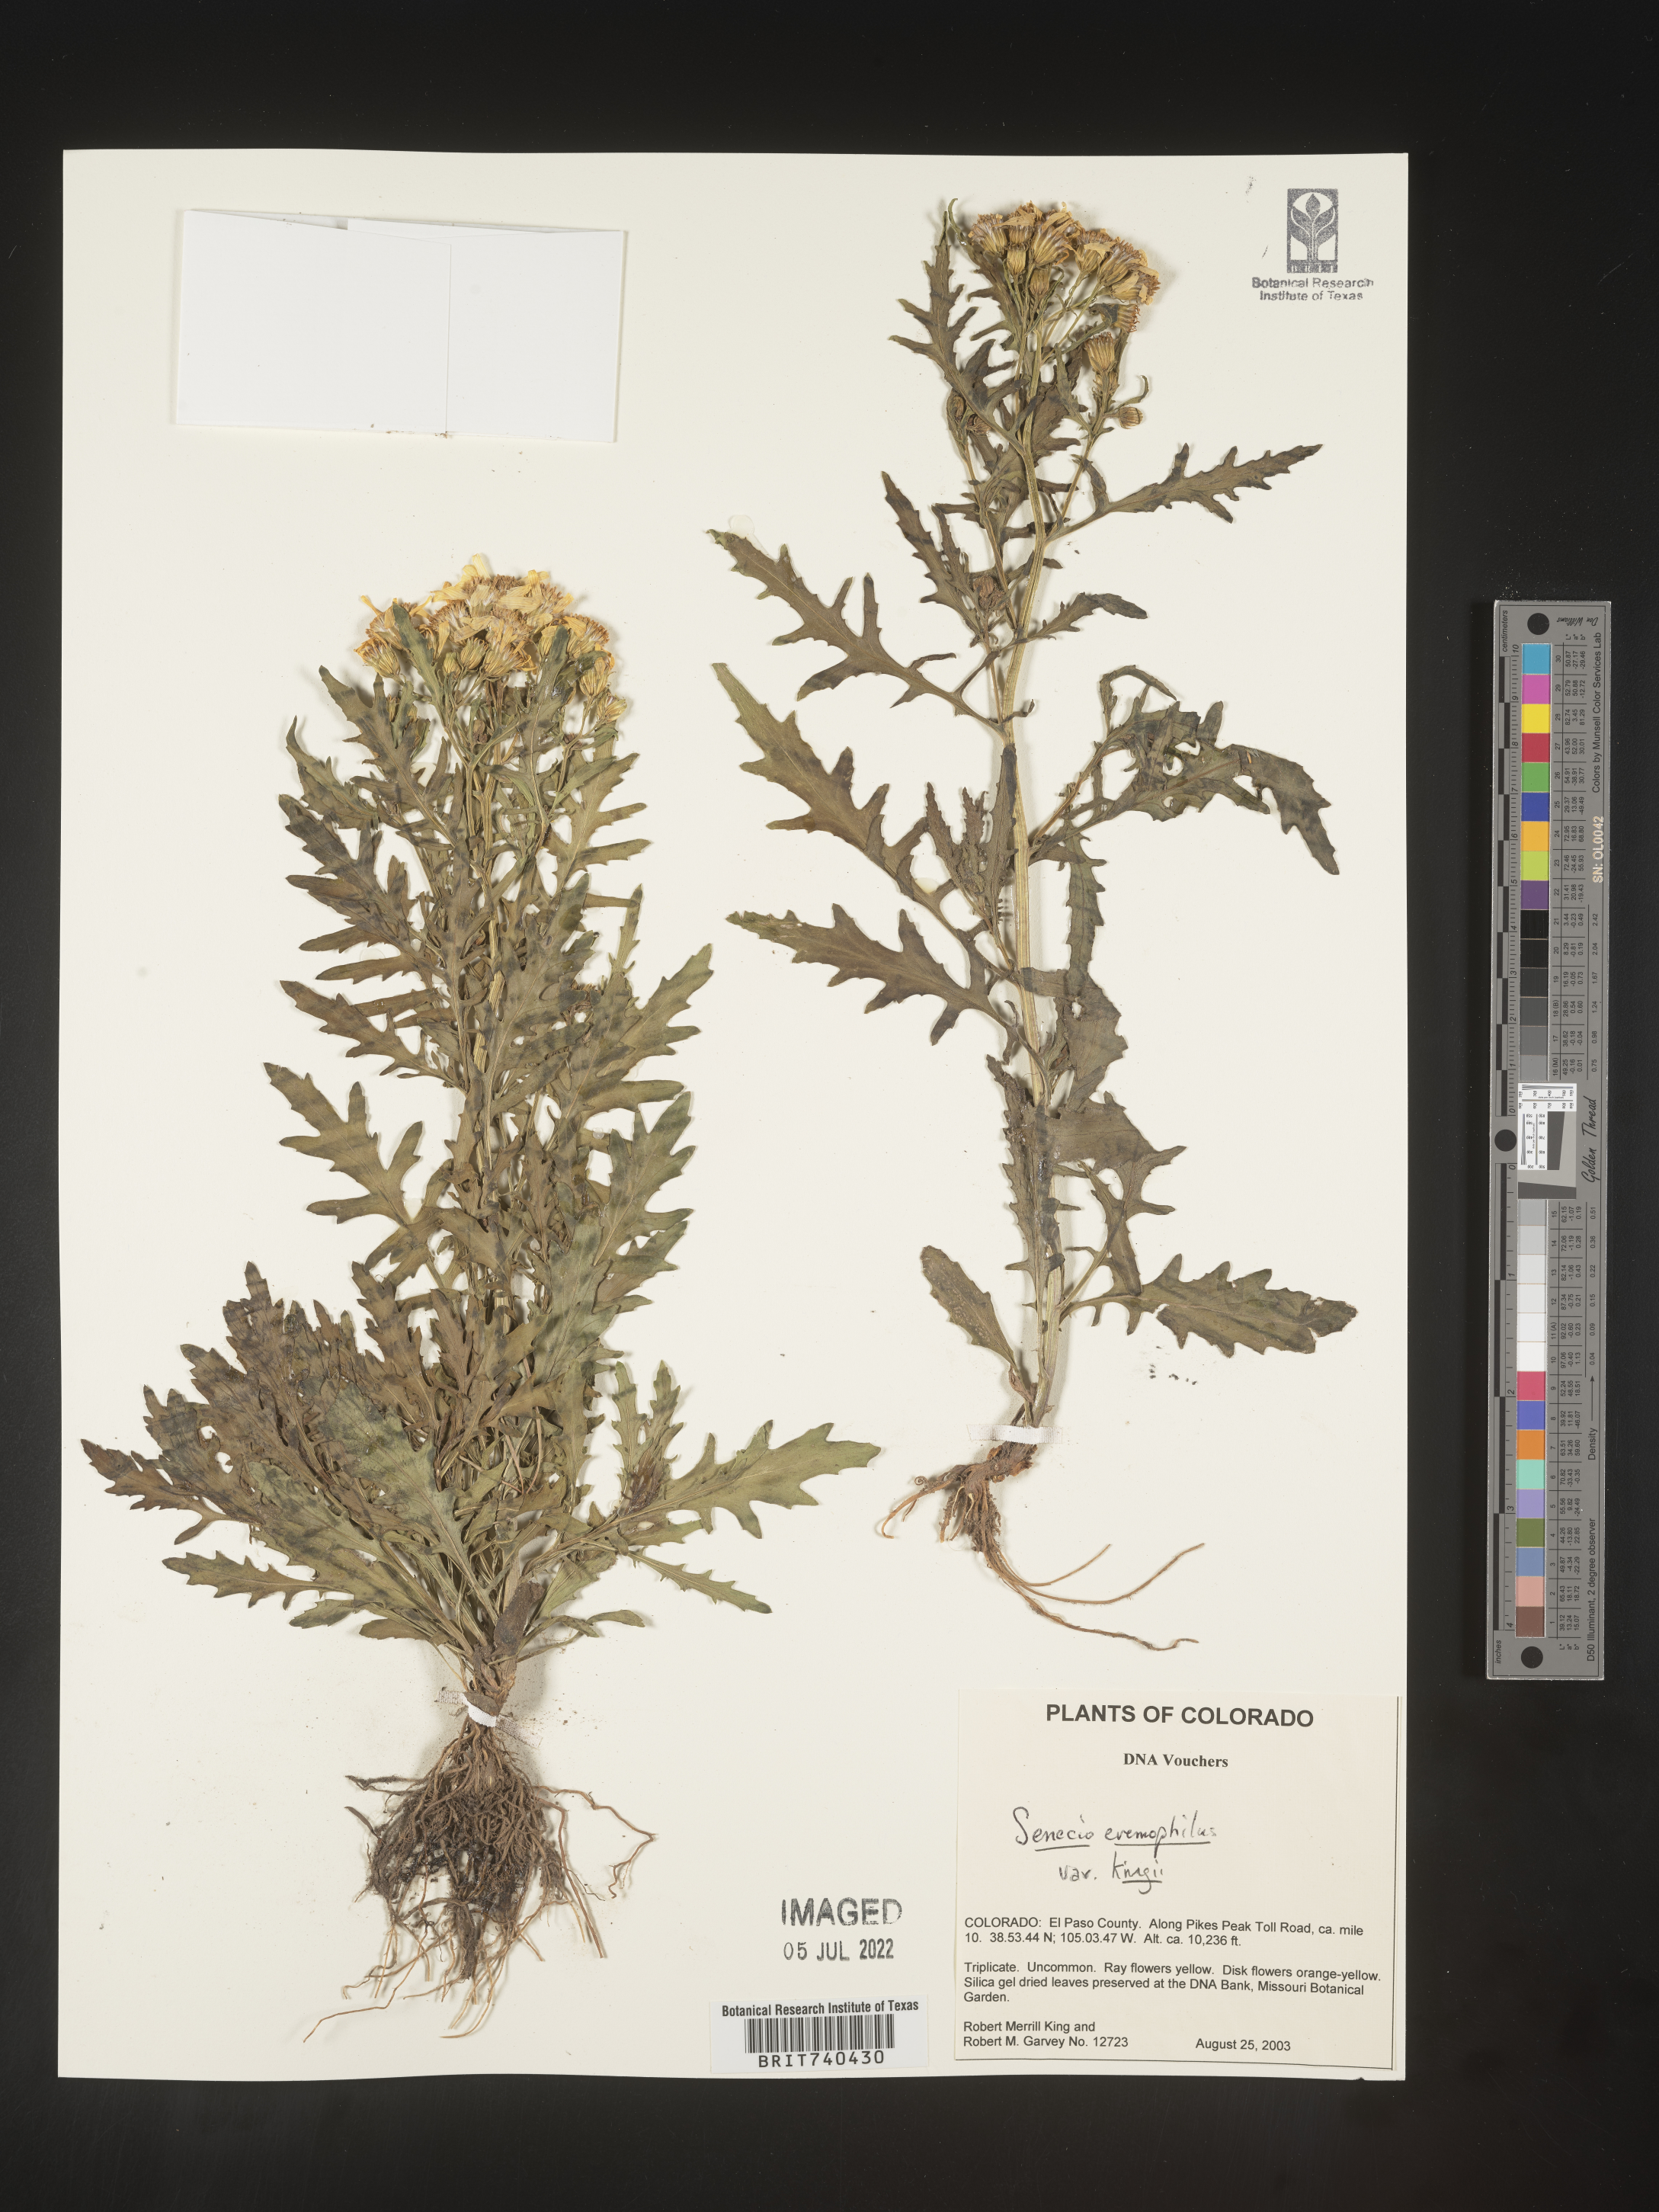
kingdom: Plantae
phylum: Tracheophyta
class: Magnoliopsida
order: Asterales
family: Asteraceae
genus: Senecio
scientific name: Senecio eremophilus
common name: Desert ragwort
